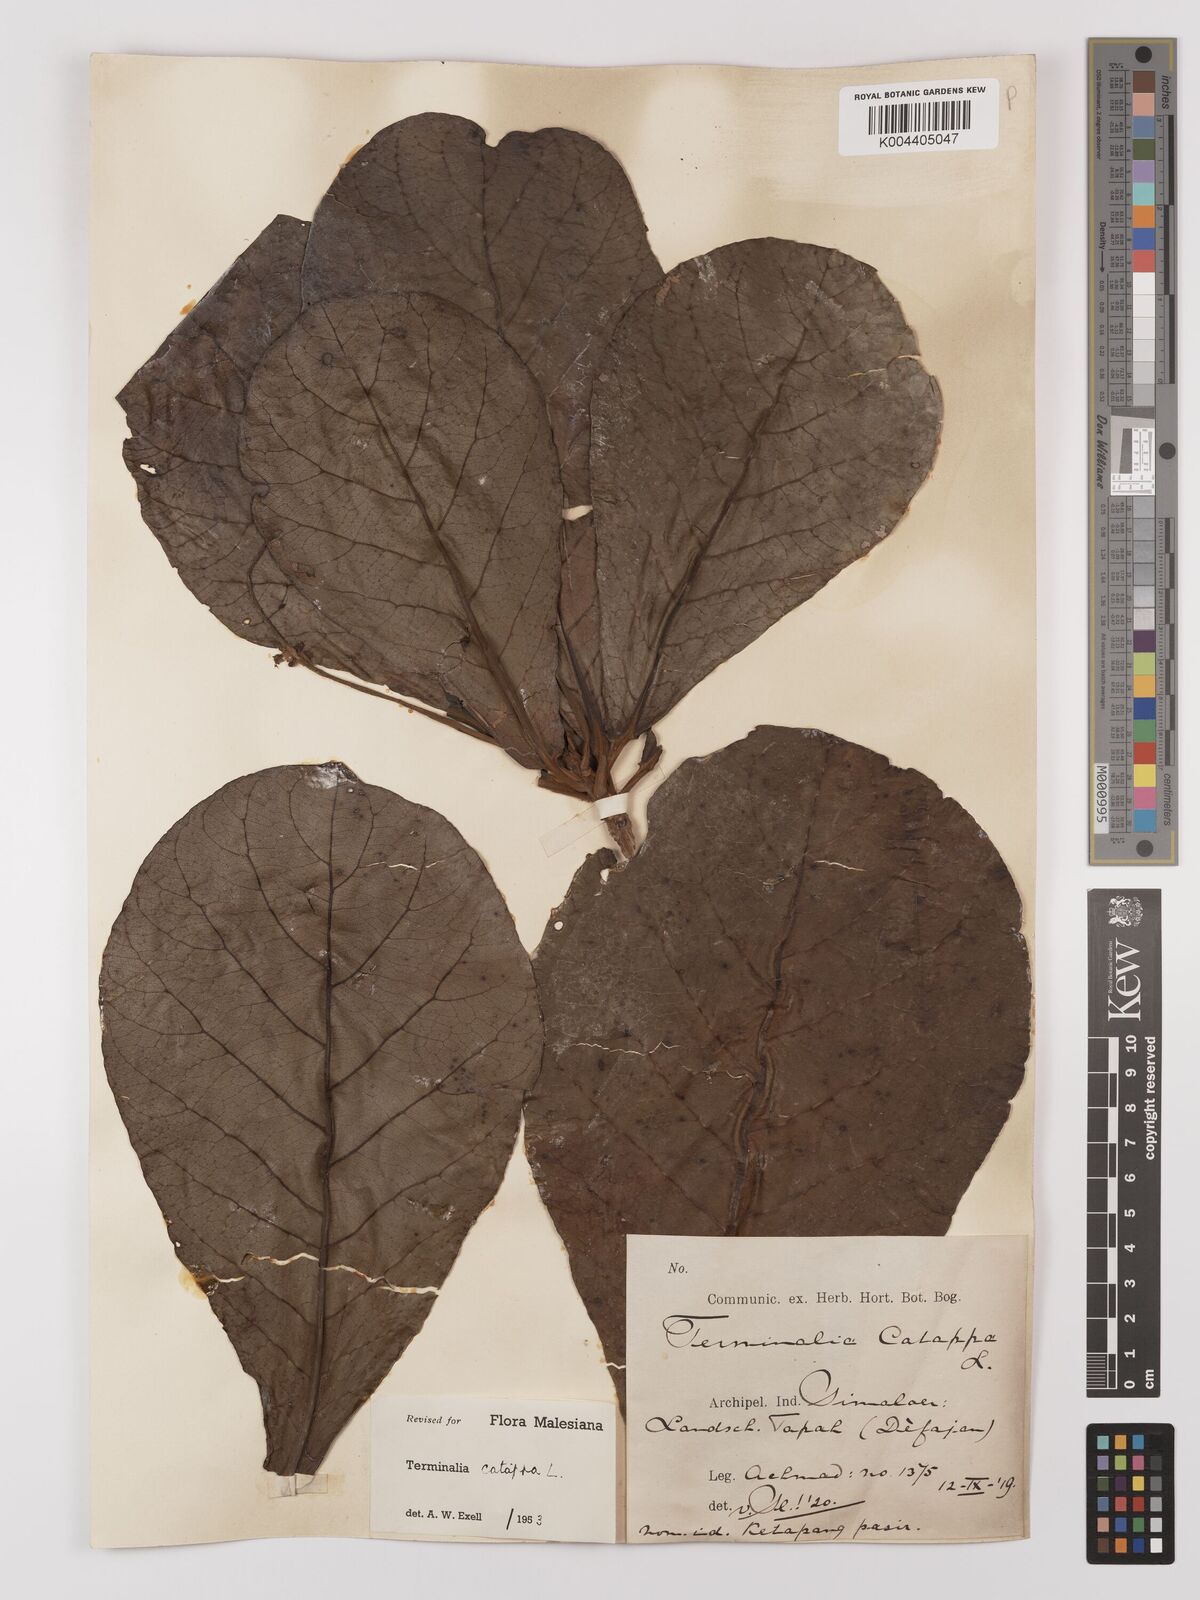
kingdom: Plantae
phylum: Tracheophyta
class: Magnoliopsida
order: Myrtales
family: Combretaceae
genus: Terminalia
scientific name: Terminalia catappa
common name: Tropical almond
